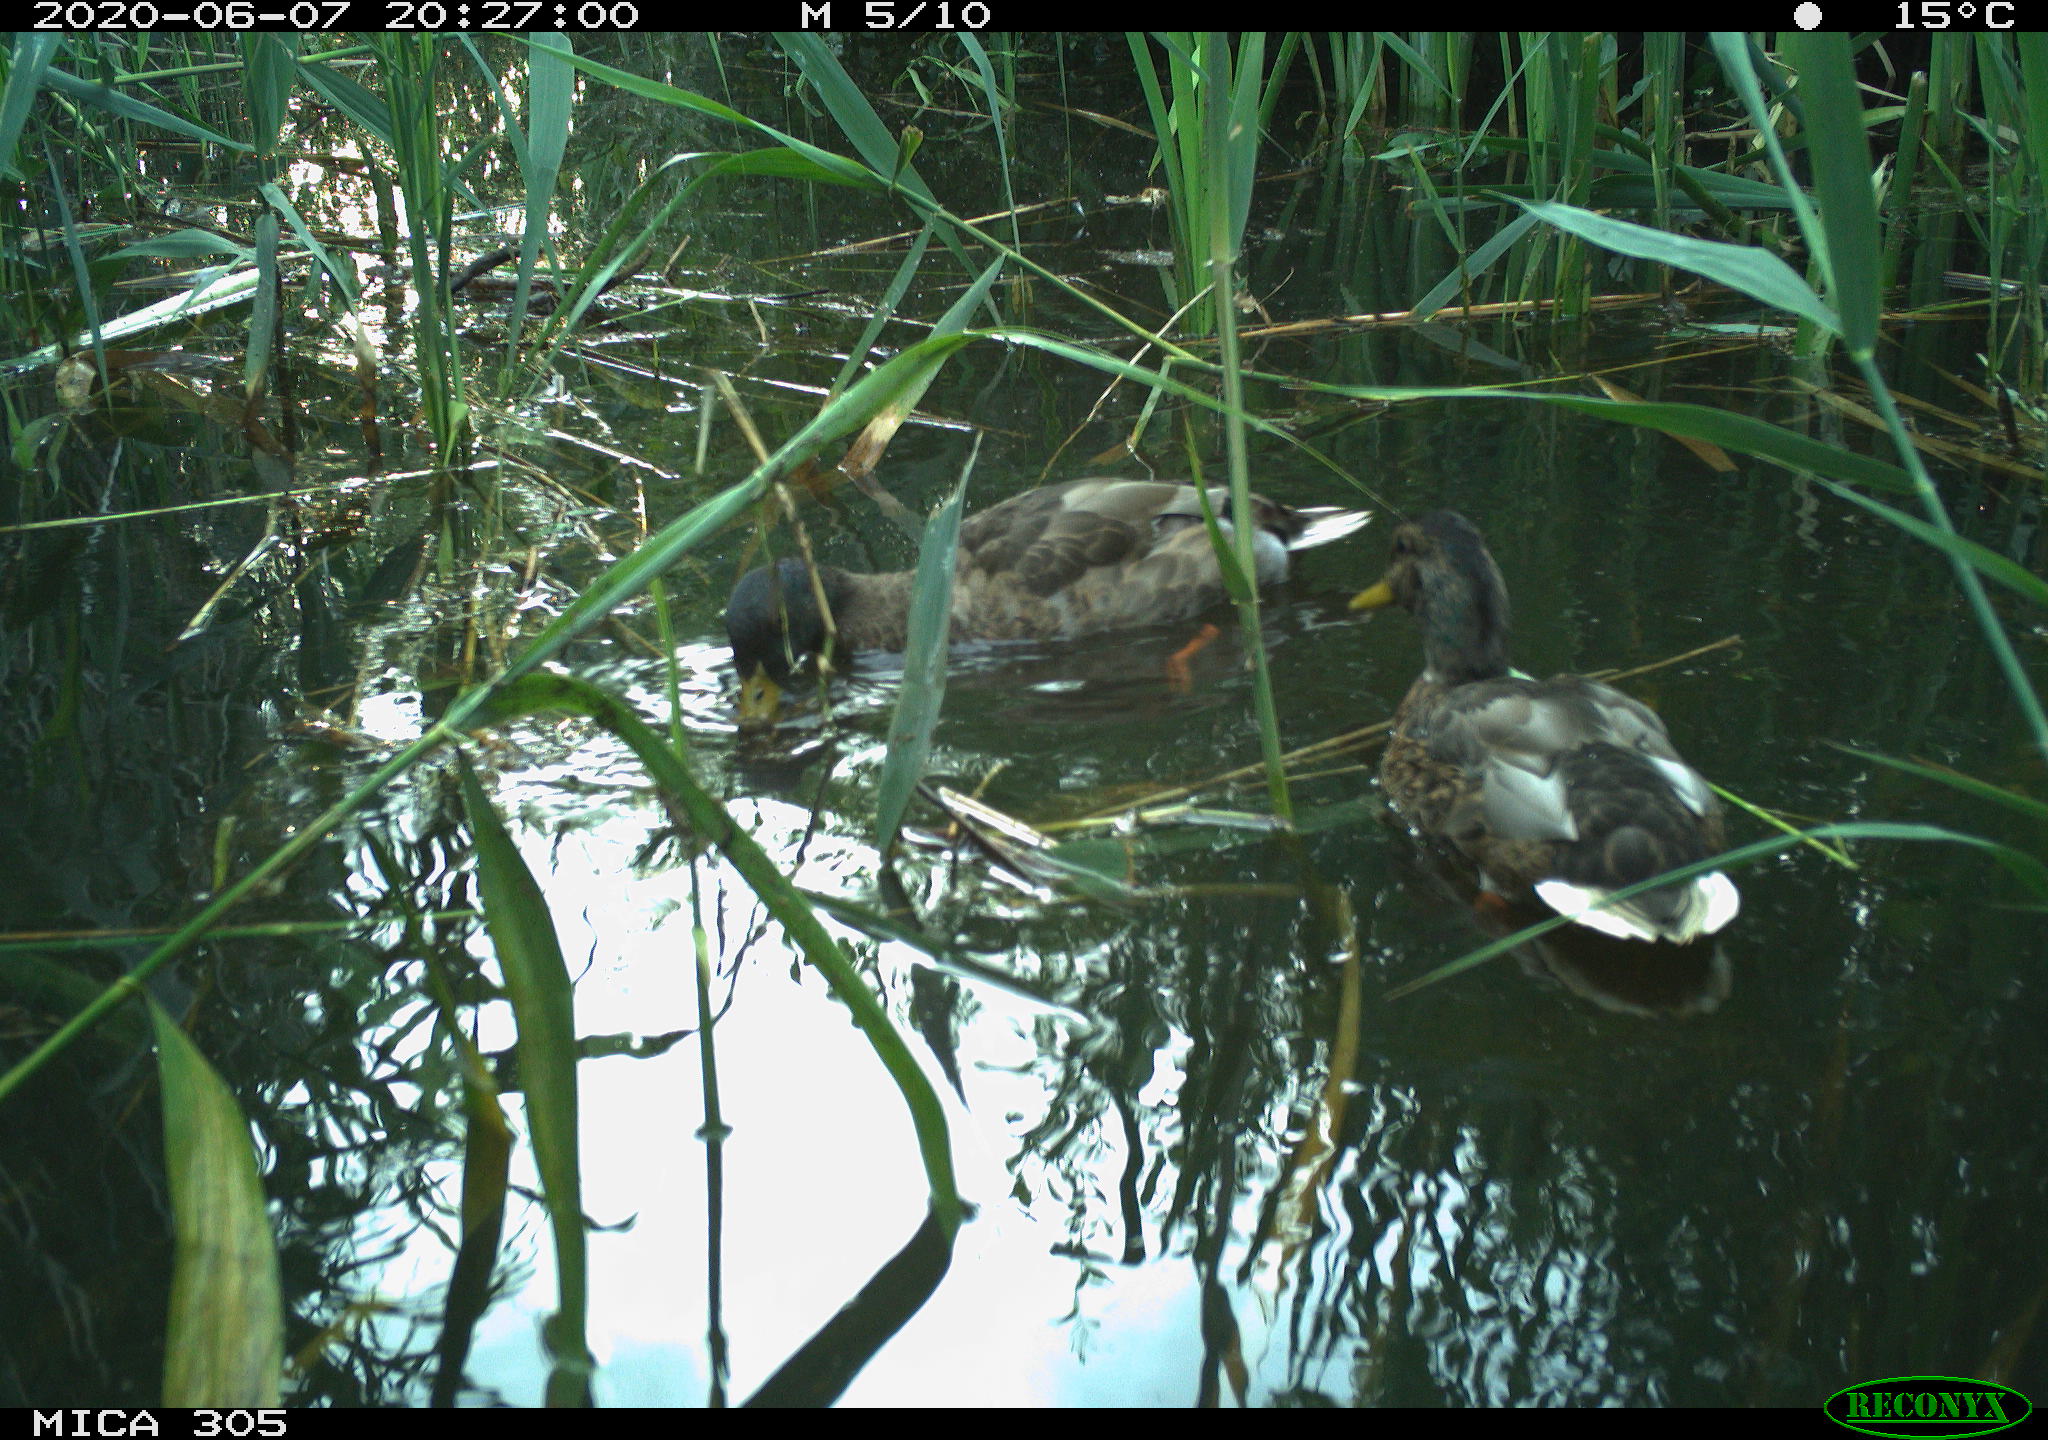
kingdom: Animalia
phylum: Chordata
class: Aves
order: Anseriformes
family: Anatidae
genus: Anas
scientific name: Anas platyrhynchos
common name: Mallard
